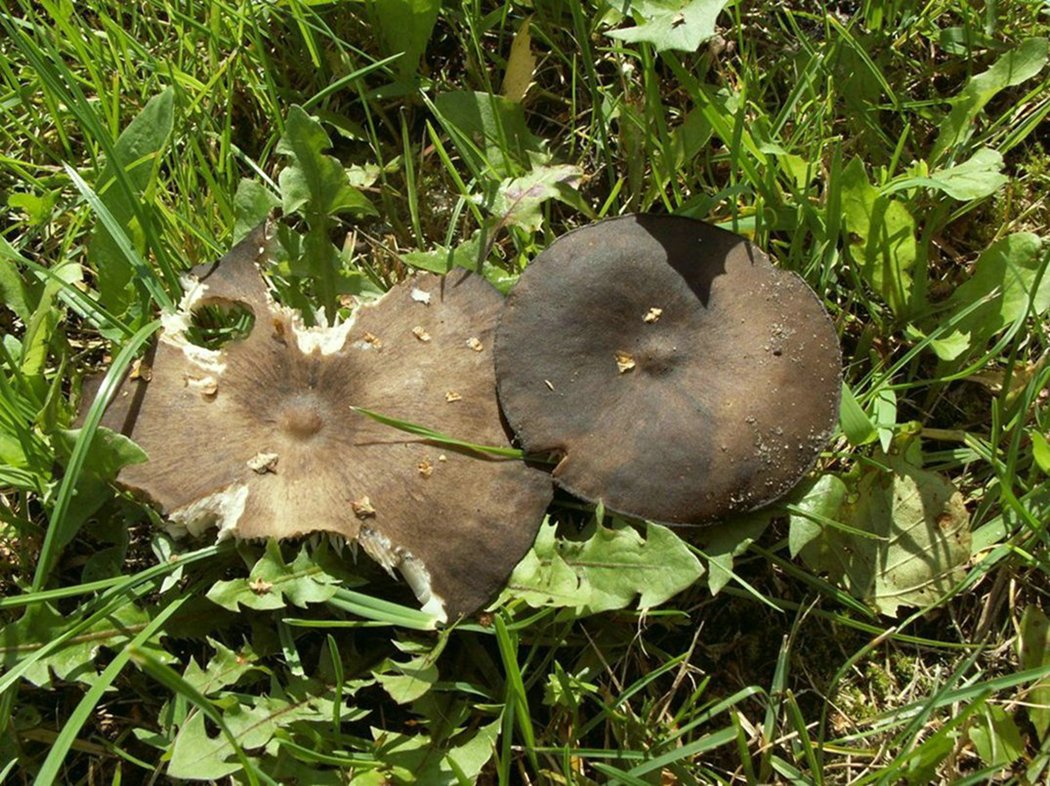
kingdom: Fungi
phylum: Basidiomycota
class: Agaricomycetes
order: Agaricales
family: Tricholomataceae
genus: Melanoleuca
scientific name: Melanoleuca
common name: munkehat
